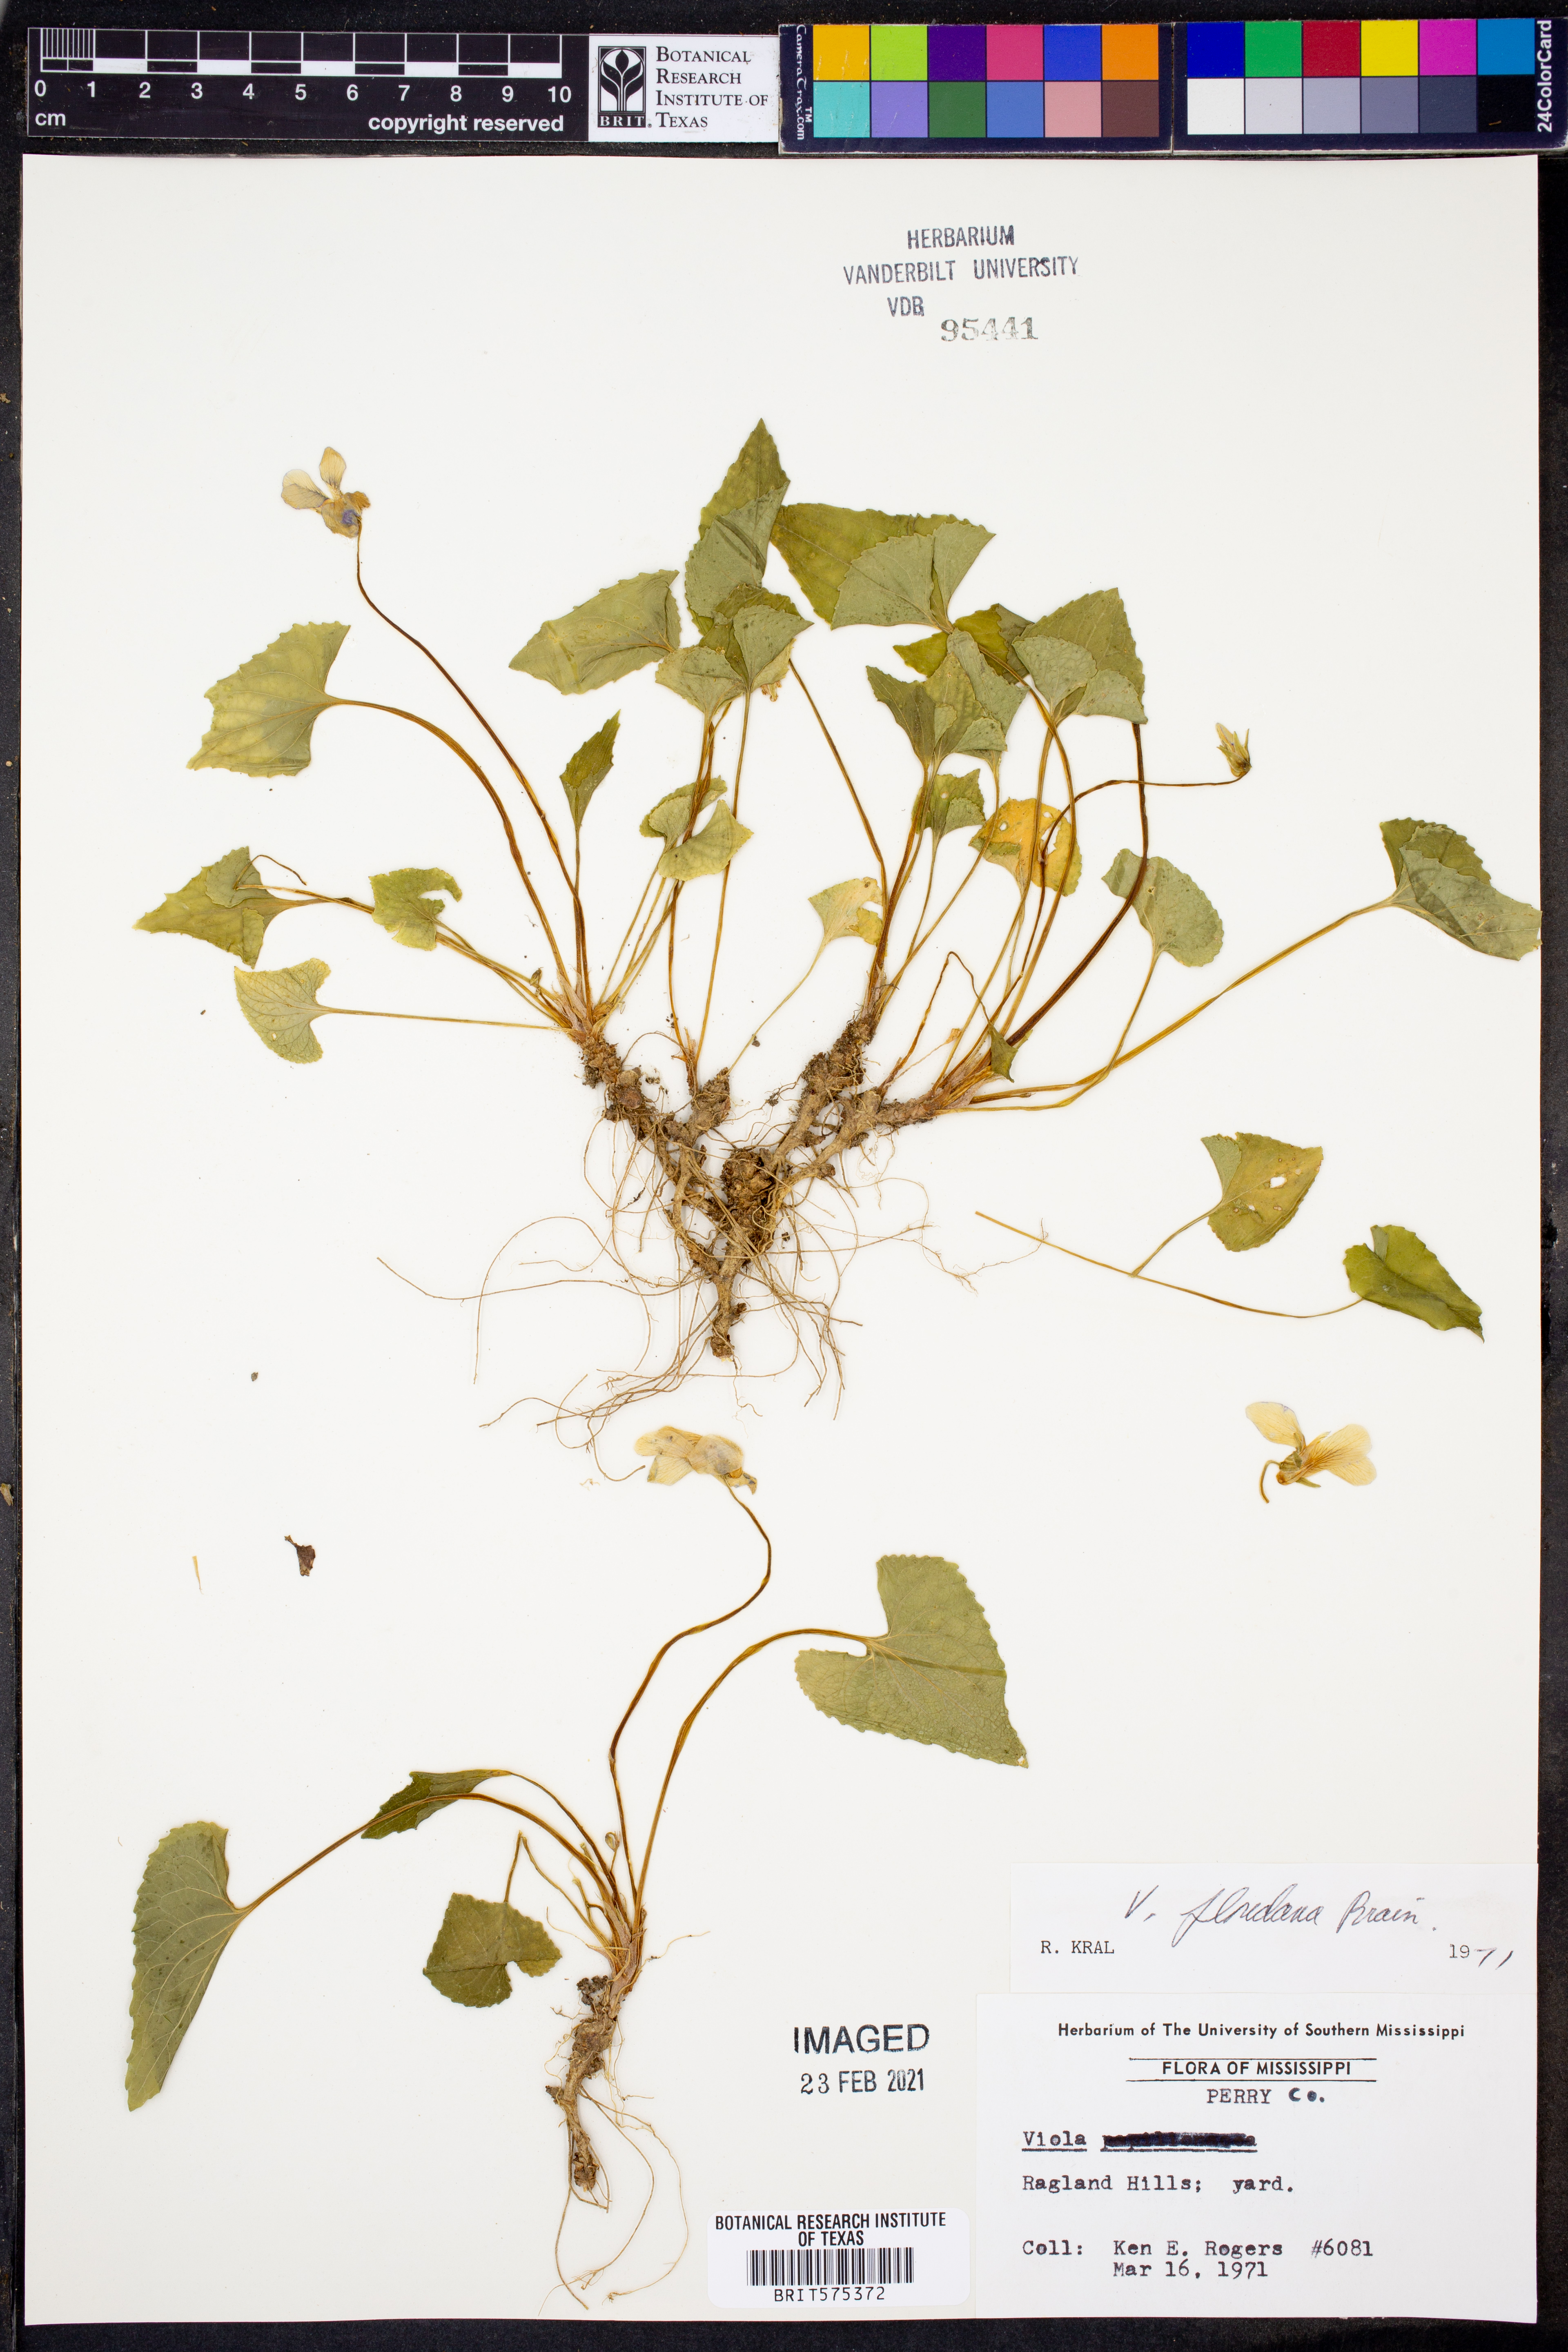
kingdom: Plantae
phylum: Tracheophyta
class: Magnoliopsida
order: Malpighiales
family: Violaceae
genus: Viola
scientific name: Viola floridana
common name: Florida violet
